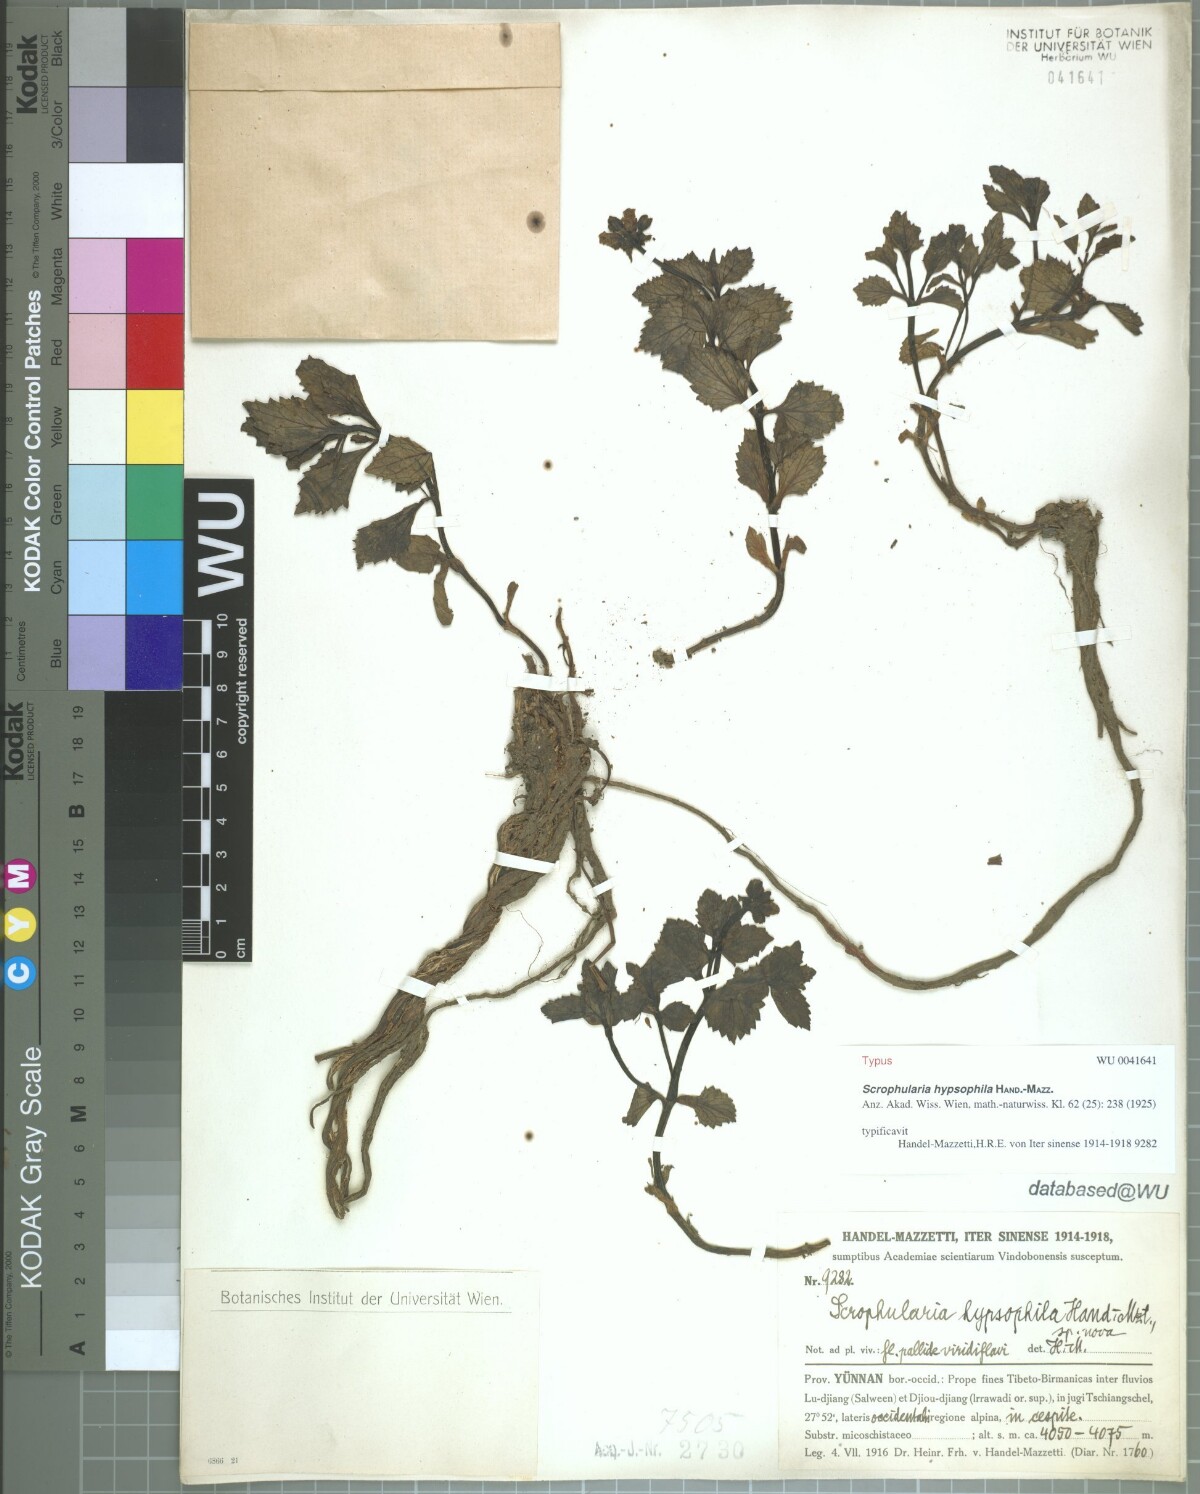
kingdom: Plantae
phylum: Tracheophyta
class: Magnoliopsida
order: Lamiales
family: Scrophulariaceae
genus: Scrophularia
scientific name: Scrophularia hypsophila
